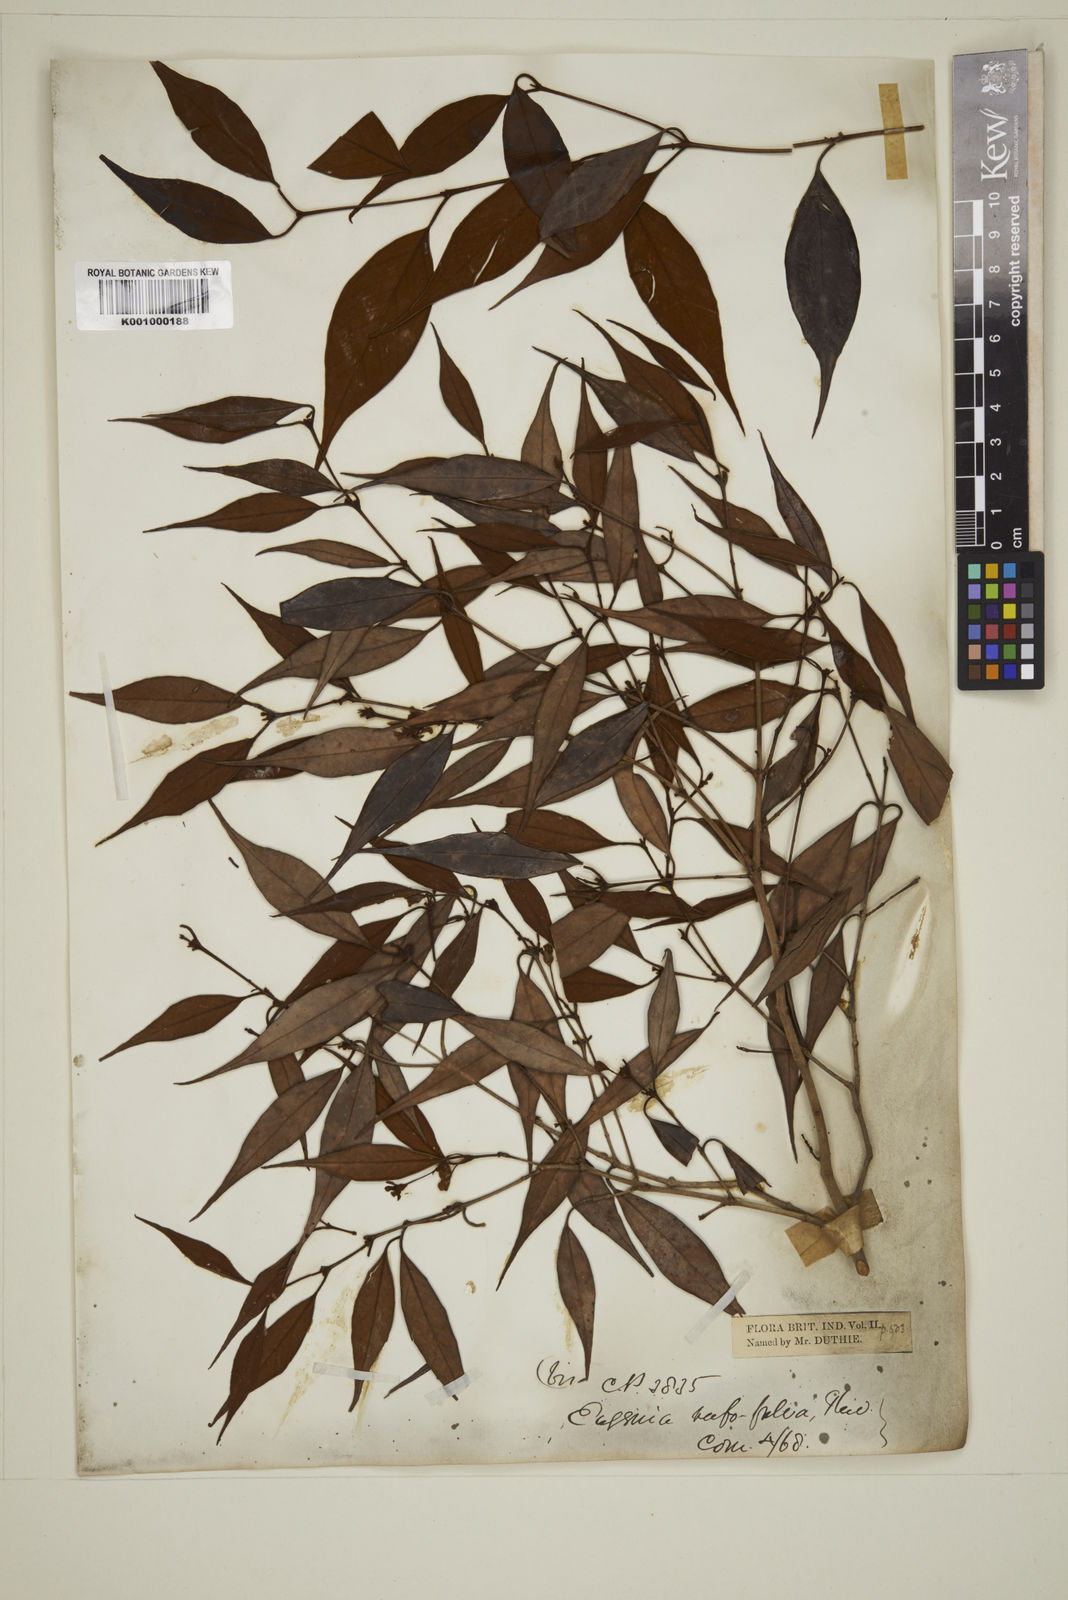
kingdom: Plantae
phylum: Tracheophyta
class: Magnoliopsida
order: Myrtales
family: Myrtaceae
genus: Eugenia
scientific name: Eugenia rufofulva
